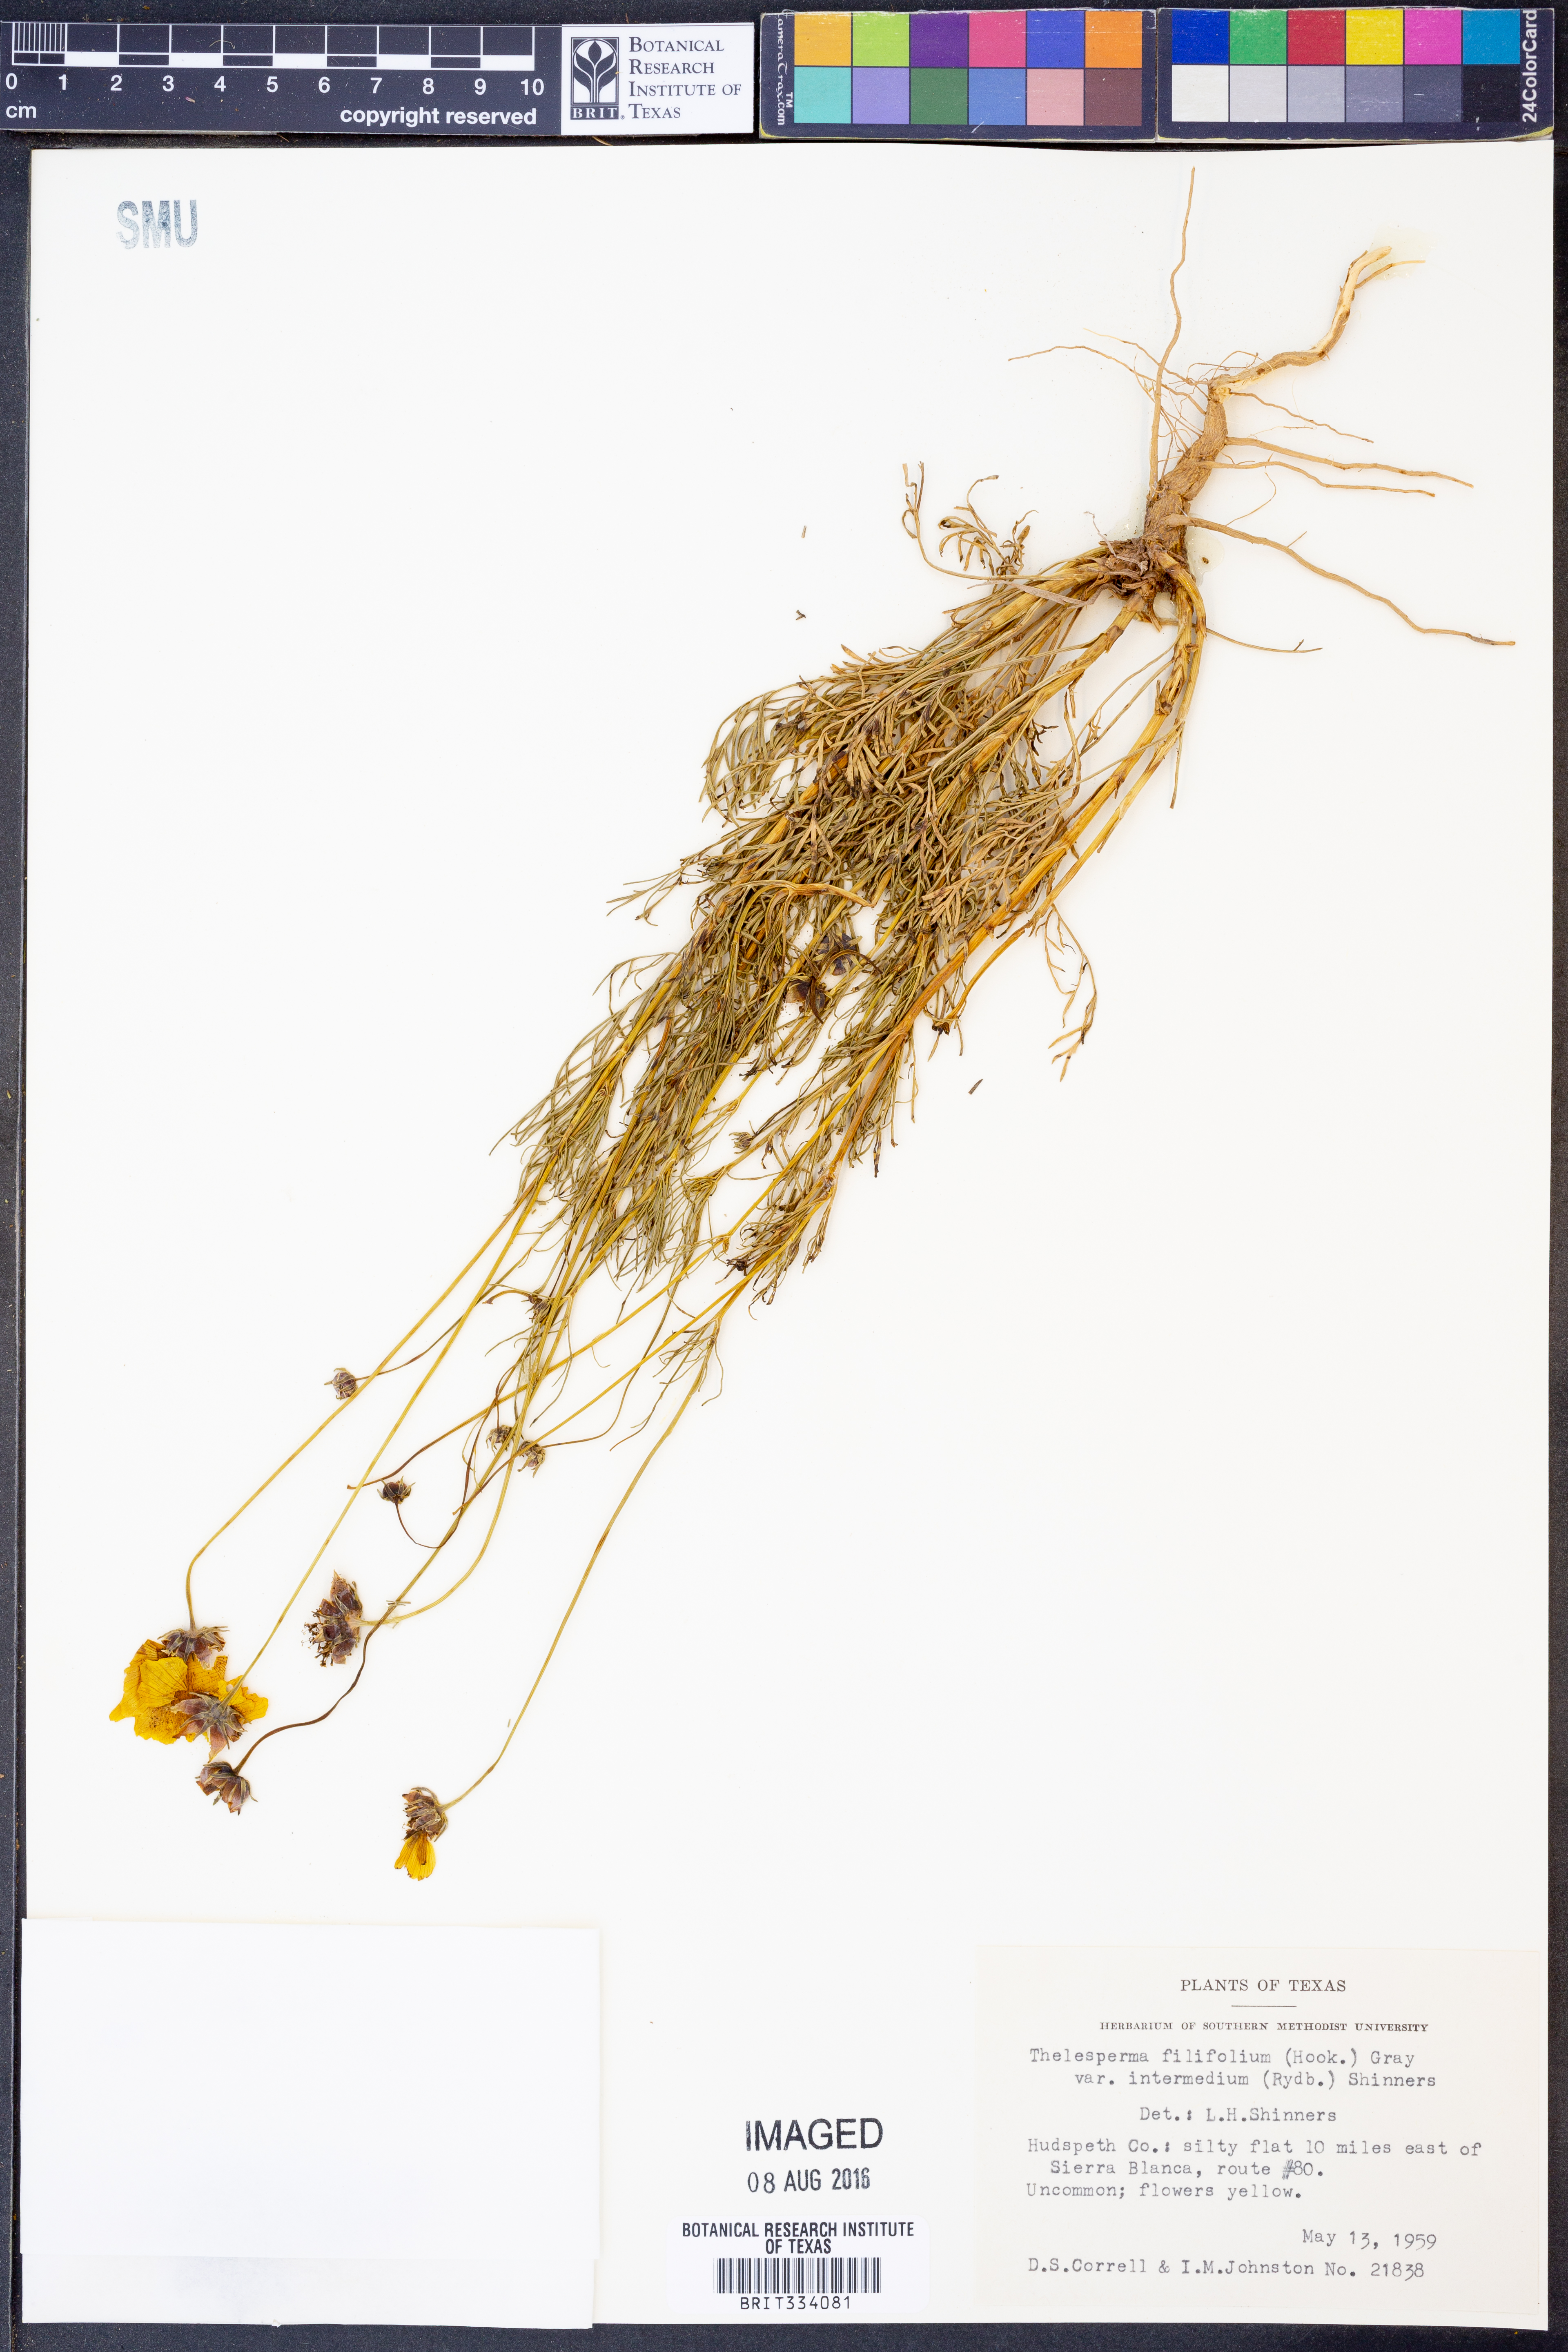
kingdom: Plantae
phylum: Tracheophyta
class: Magnoliopsida
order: Asterales
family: Asteraceae
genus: Thelesperma
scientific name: Thelesperma filifolium
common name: Stiff greenthread
